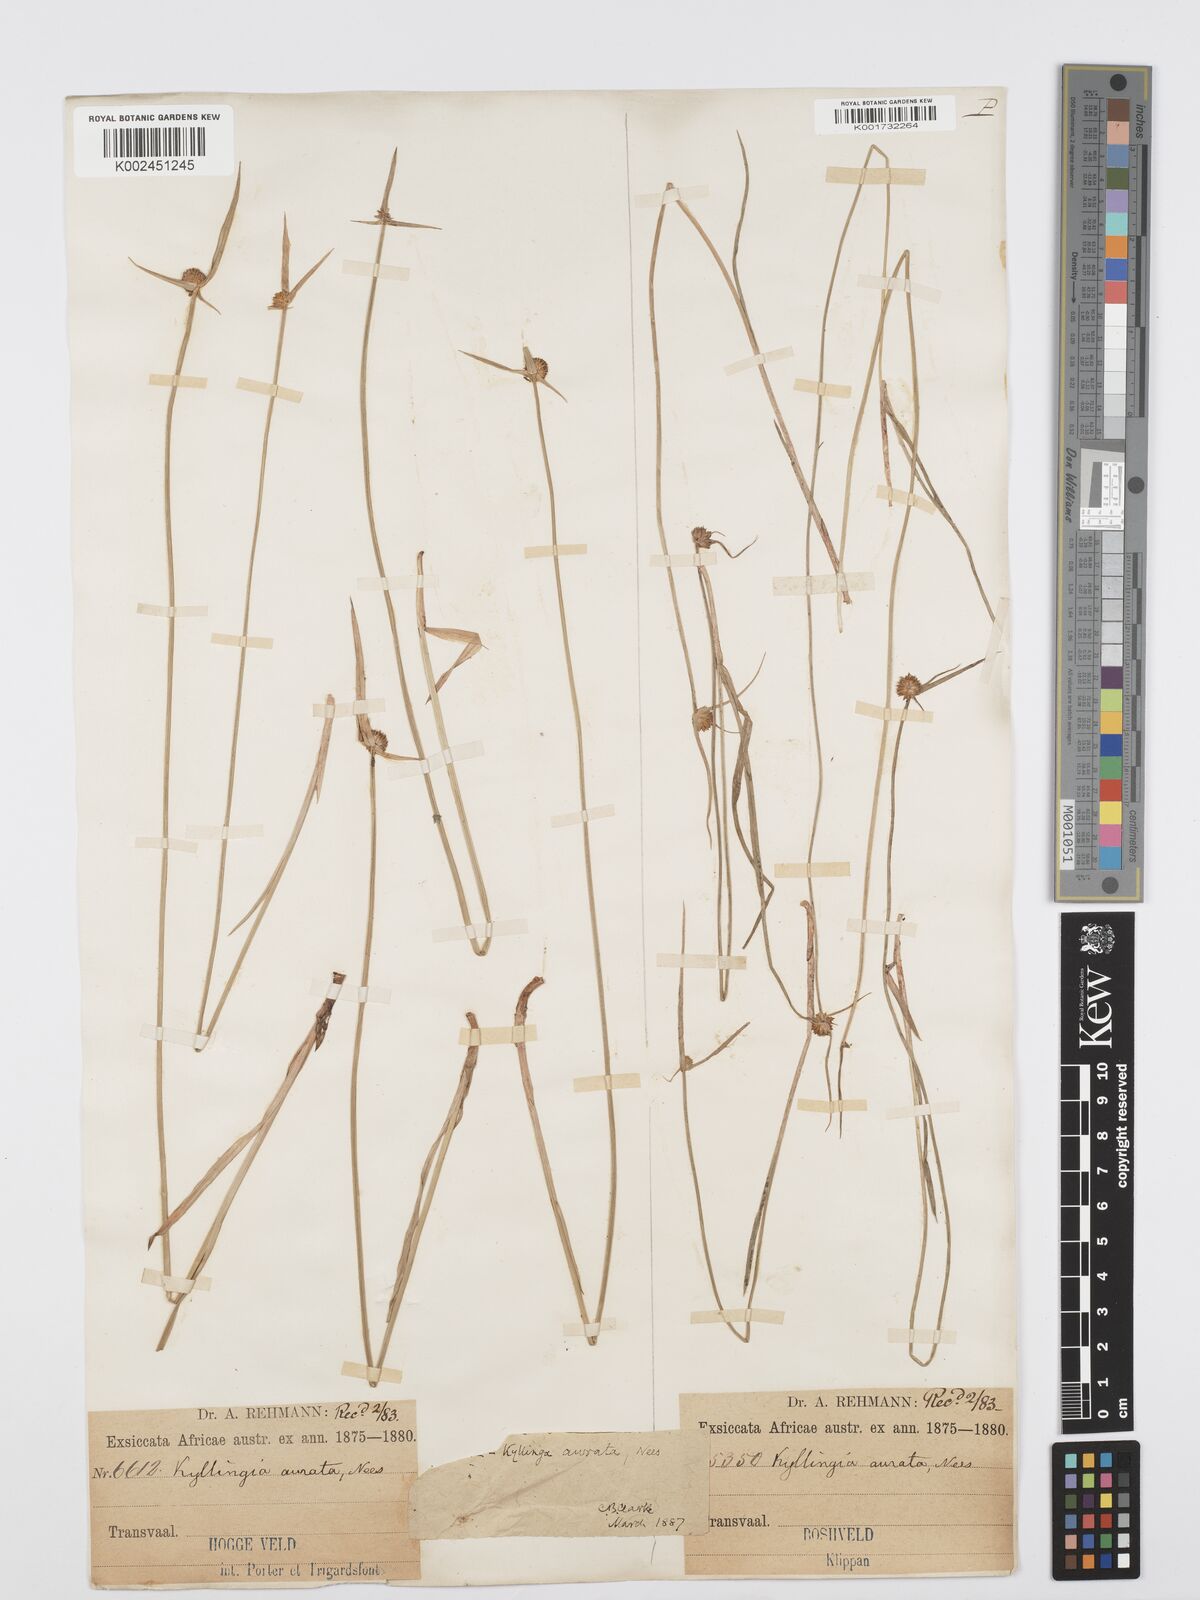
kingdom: Plantae
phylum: Tracheophyta
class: Liliopsida
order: Poales
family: Cyperaceae
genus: Cyperus
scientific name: Cyperus erectus
